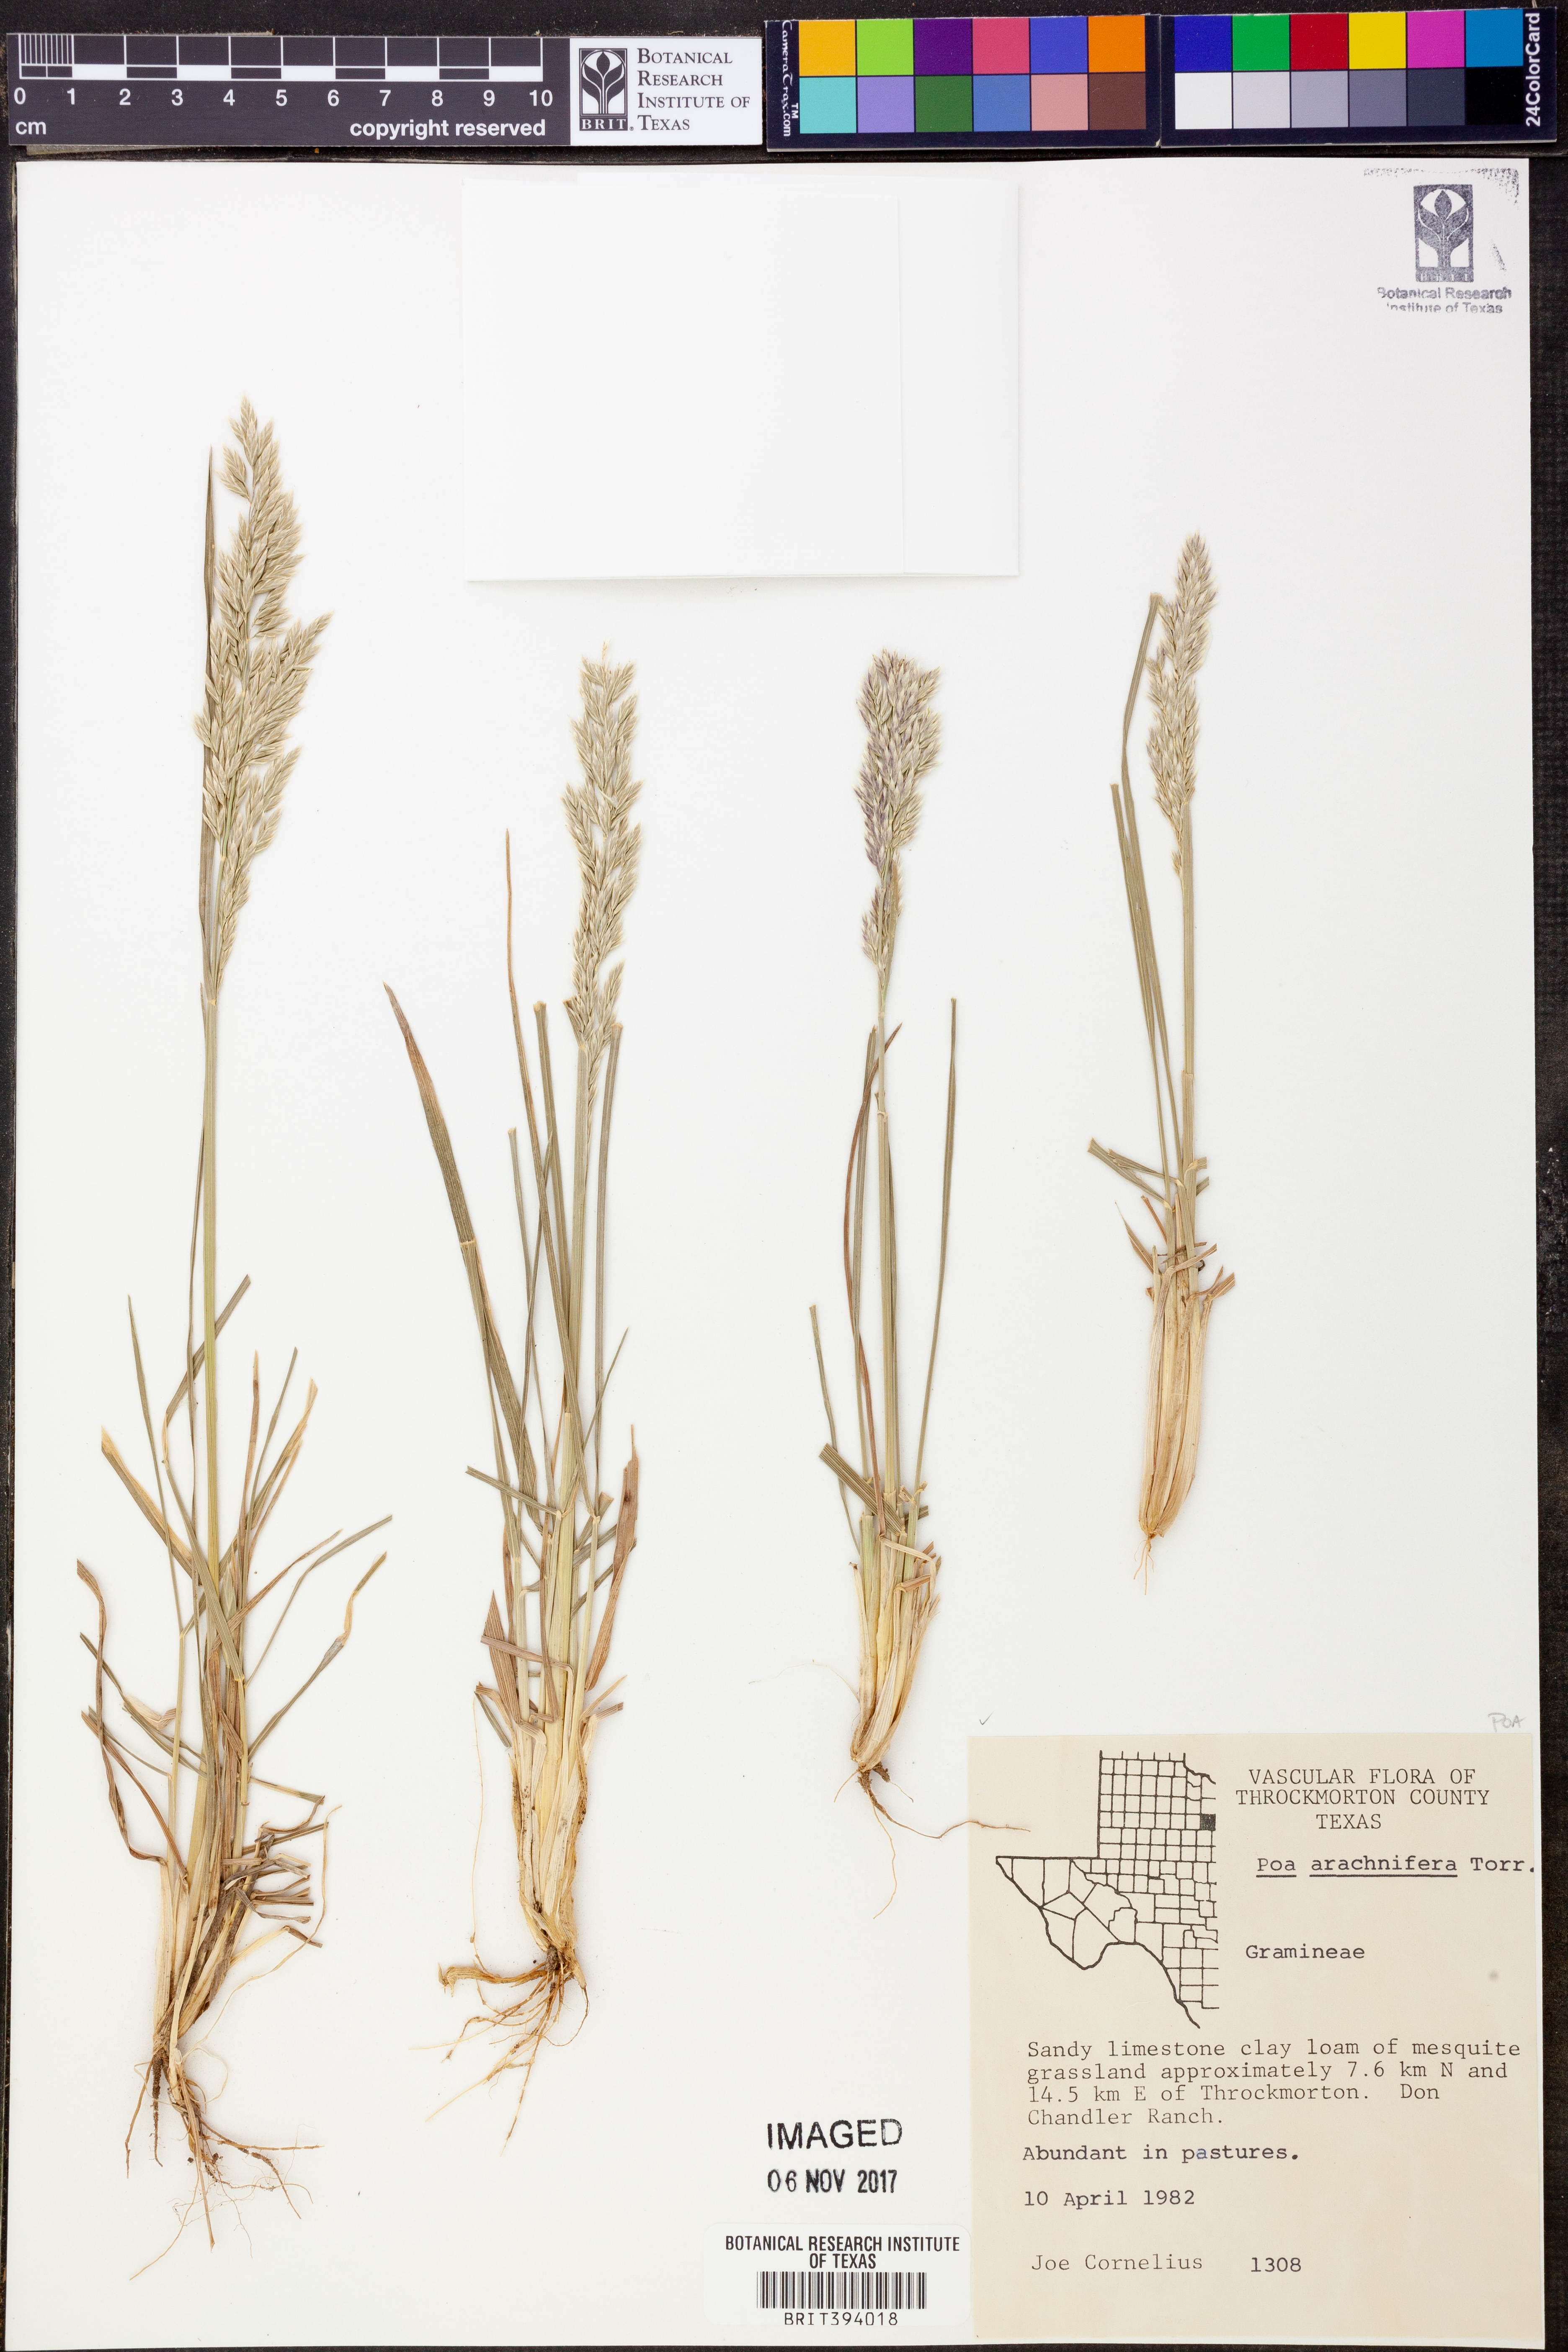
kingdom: Plantae
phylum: Tracheophyta
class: Liliopsida
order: Poales
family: Poaceae
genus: Poa
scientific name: Poa arachnifera
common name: Texas bluegrass
